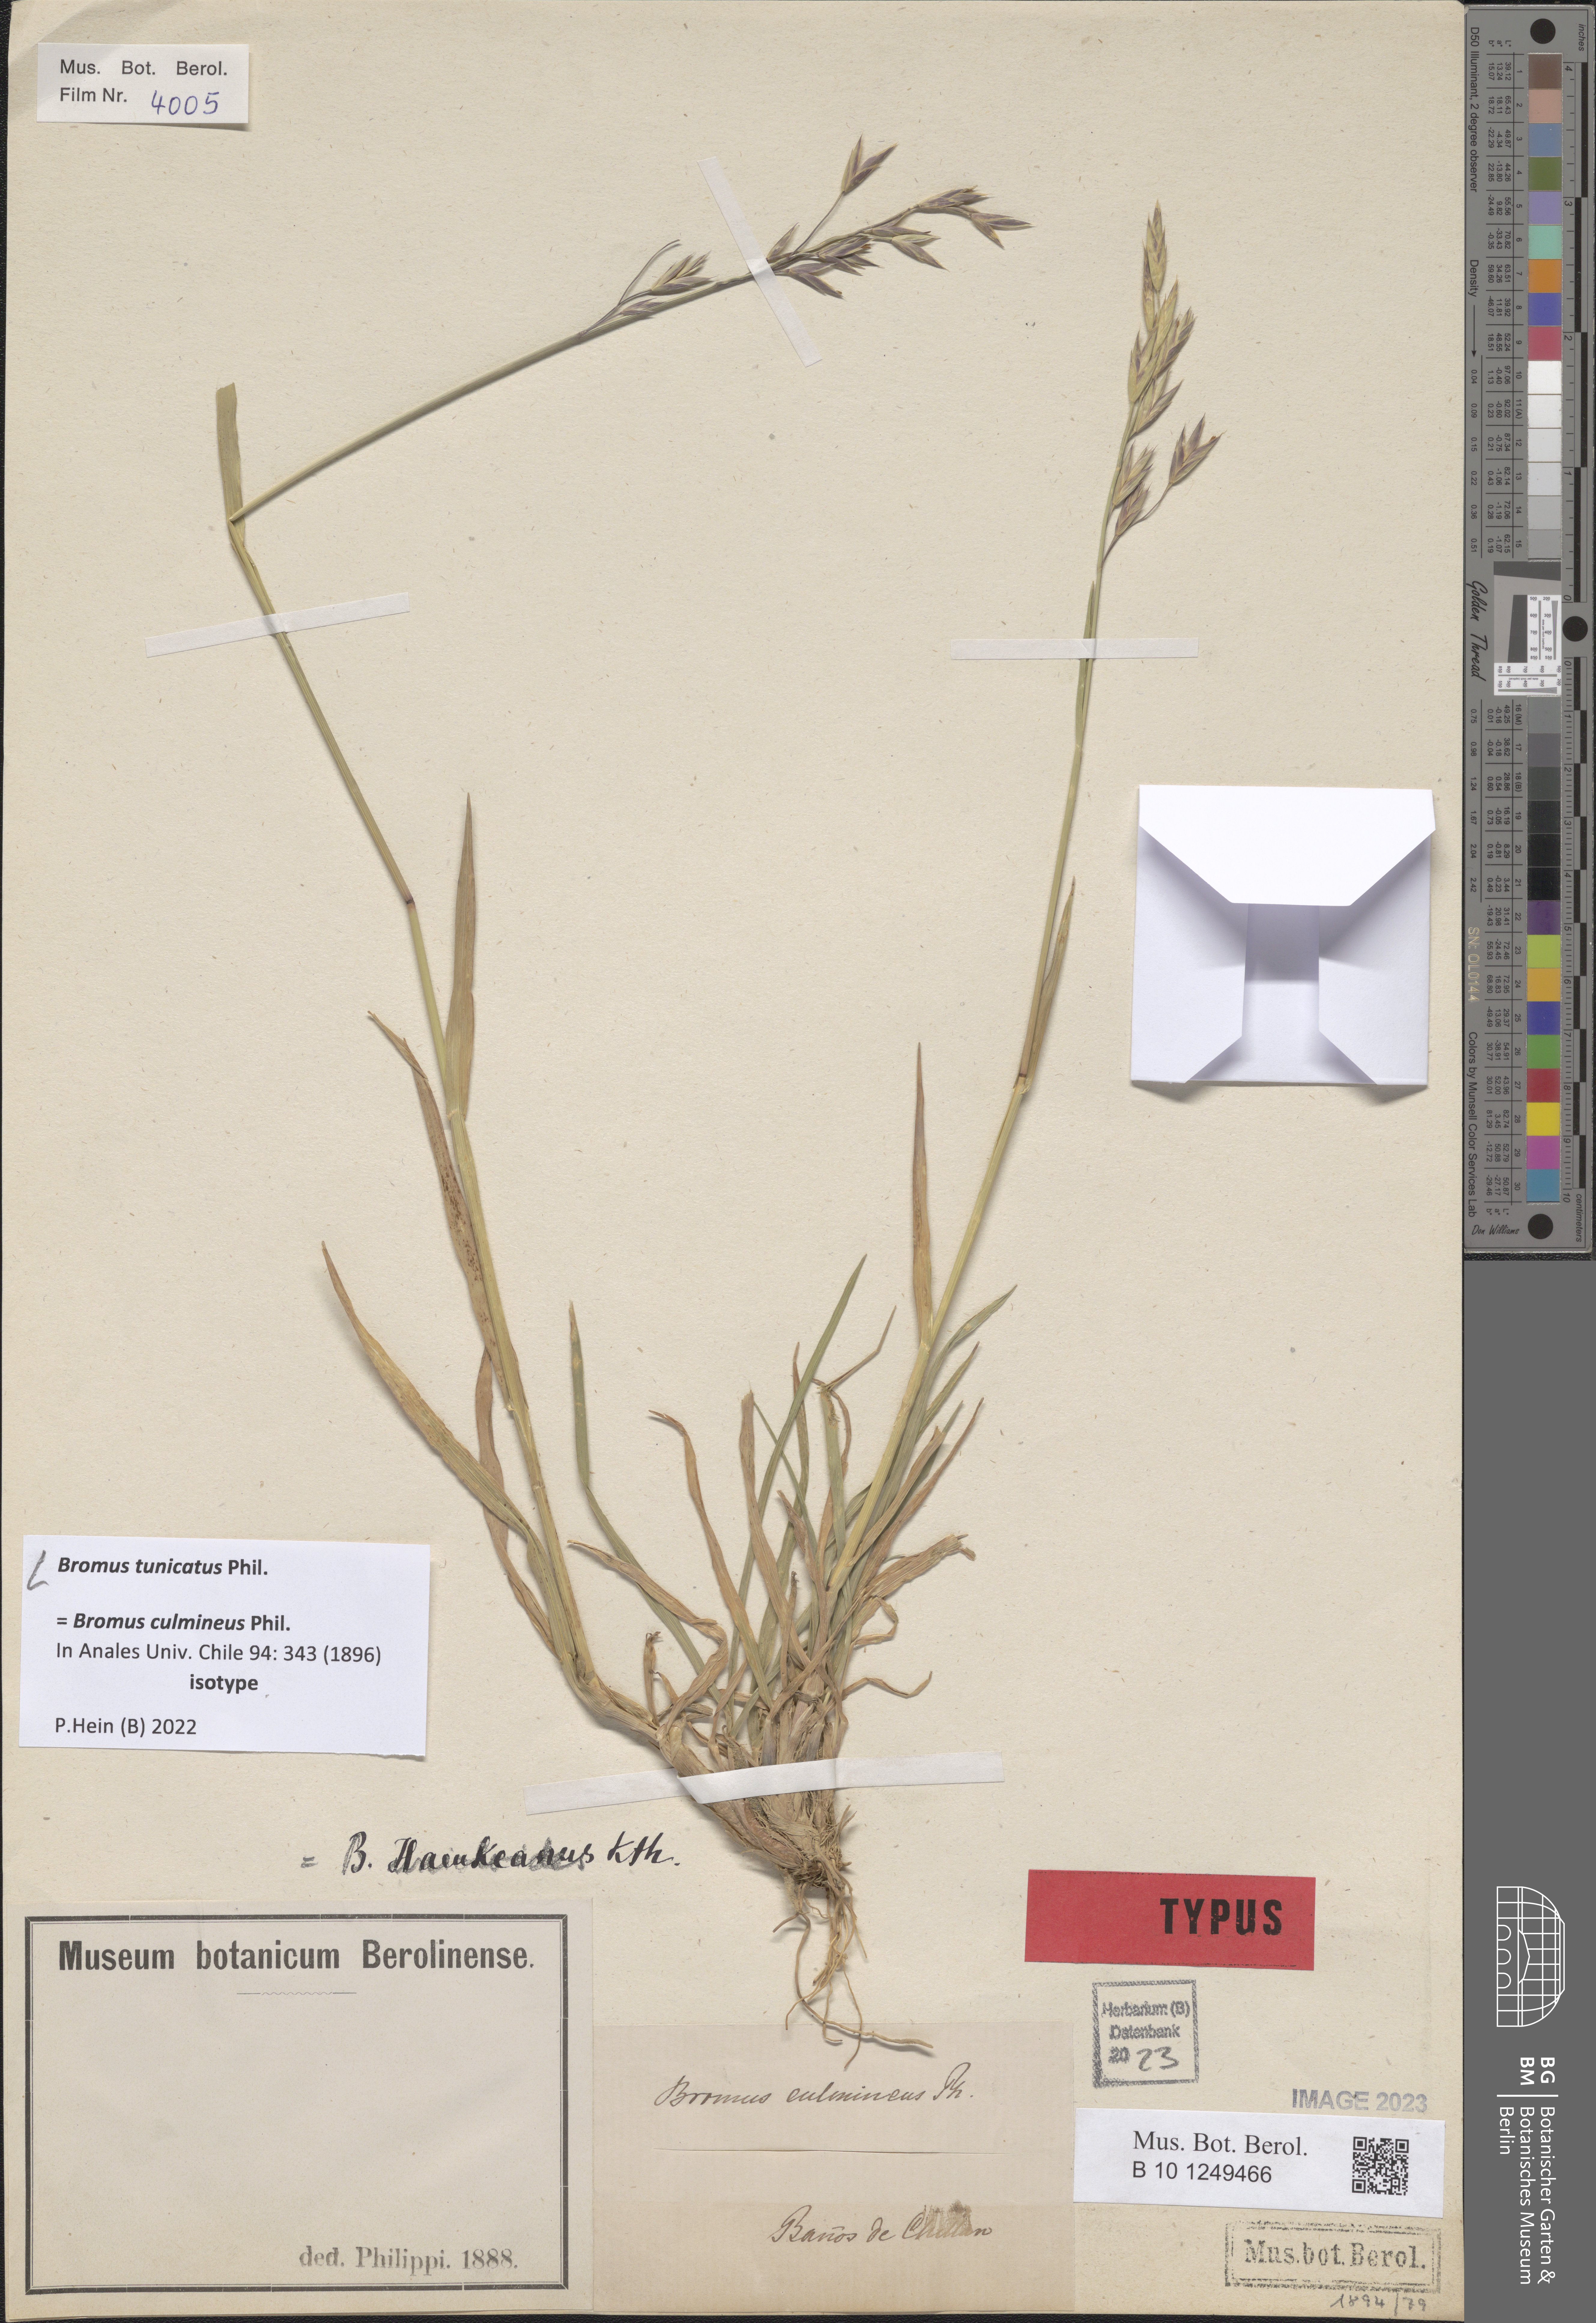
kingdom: Plantae
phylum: Tracheophyta
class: Liliopsida
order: Poales
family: Poaceae
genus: Bromus
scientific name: Bromus tunicatus
